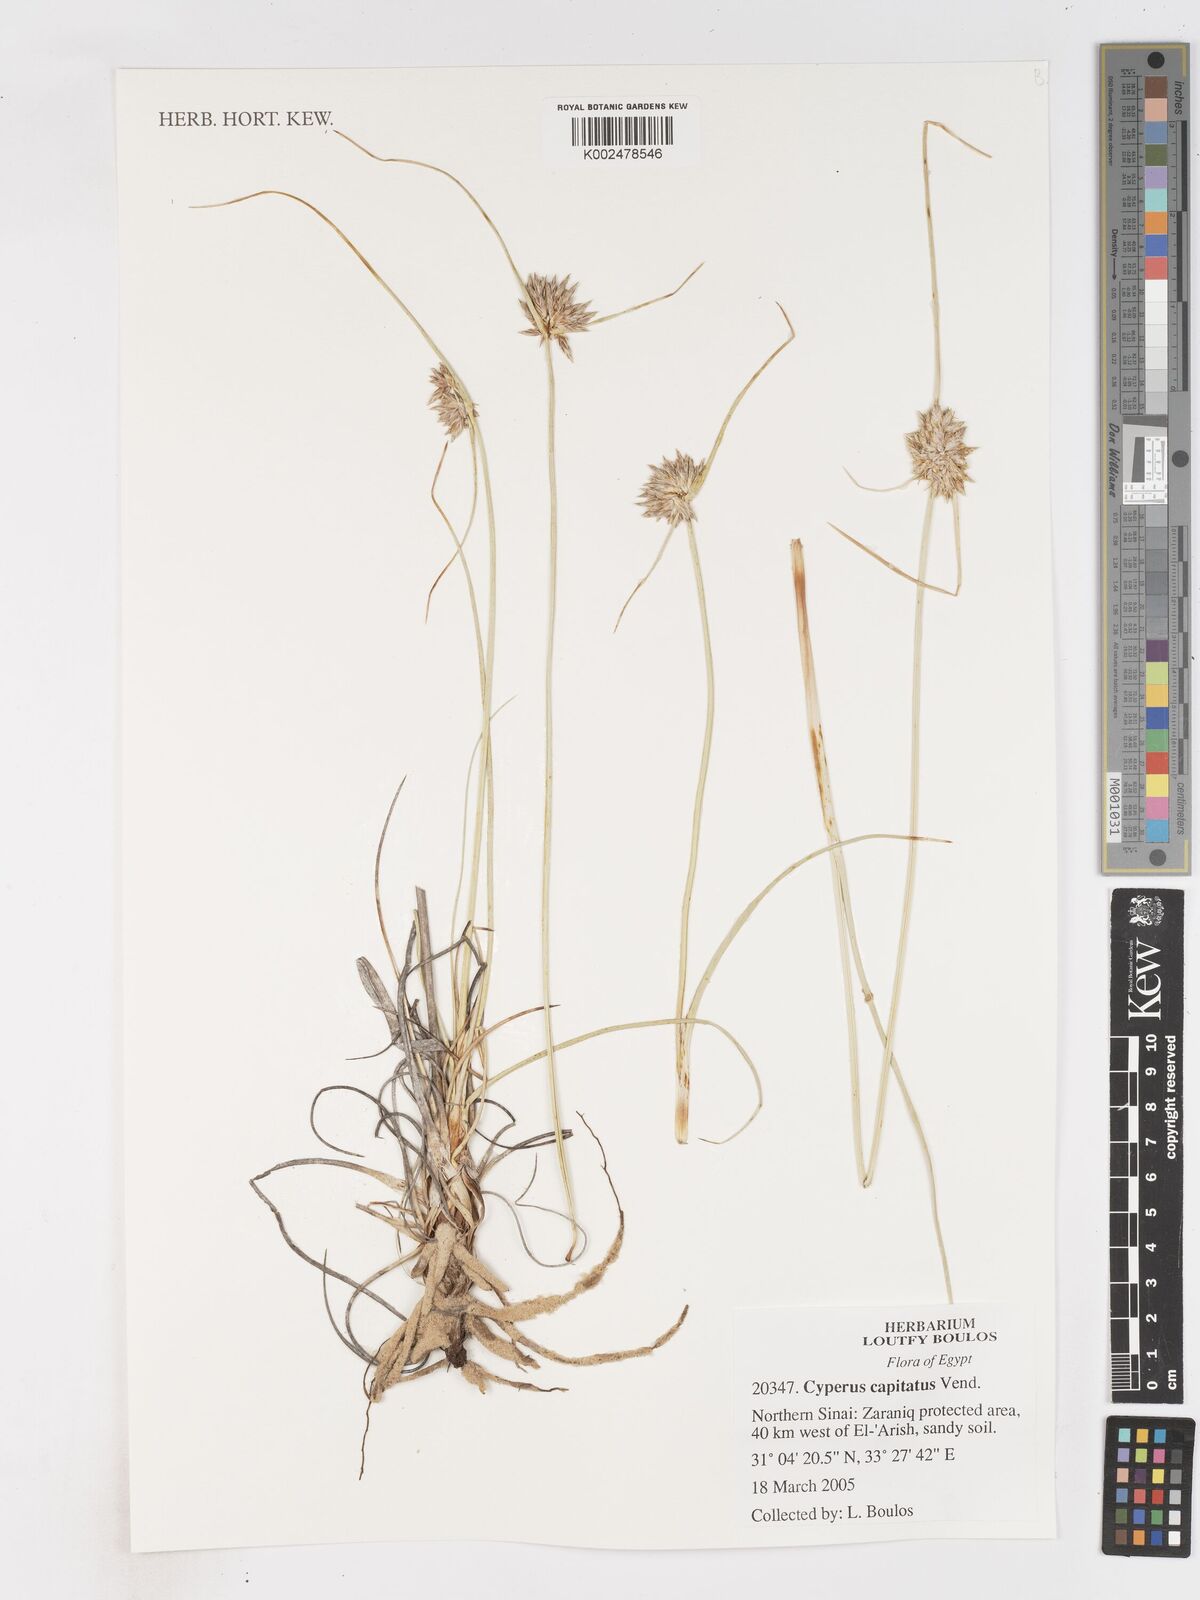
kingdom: Plantae
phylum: Tracheophyta
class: Liliopsida
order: Poales
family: Cyperaceae
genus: Cyperus
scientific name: Cyperus capitatus
